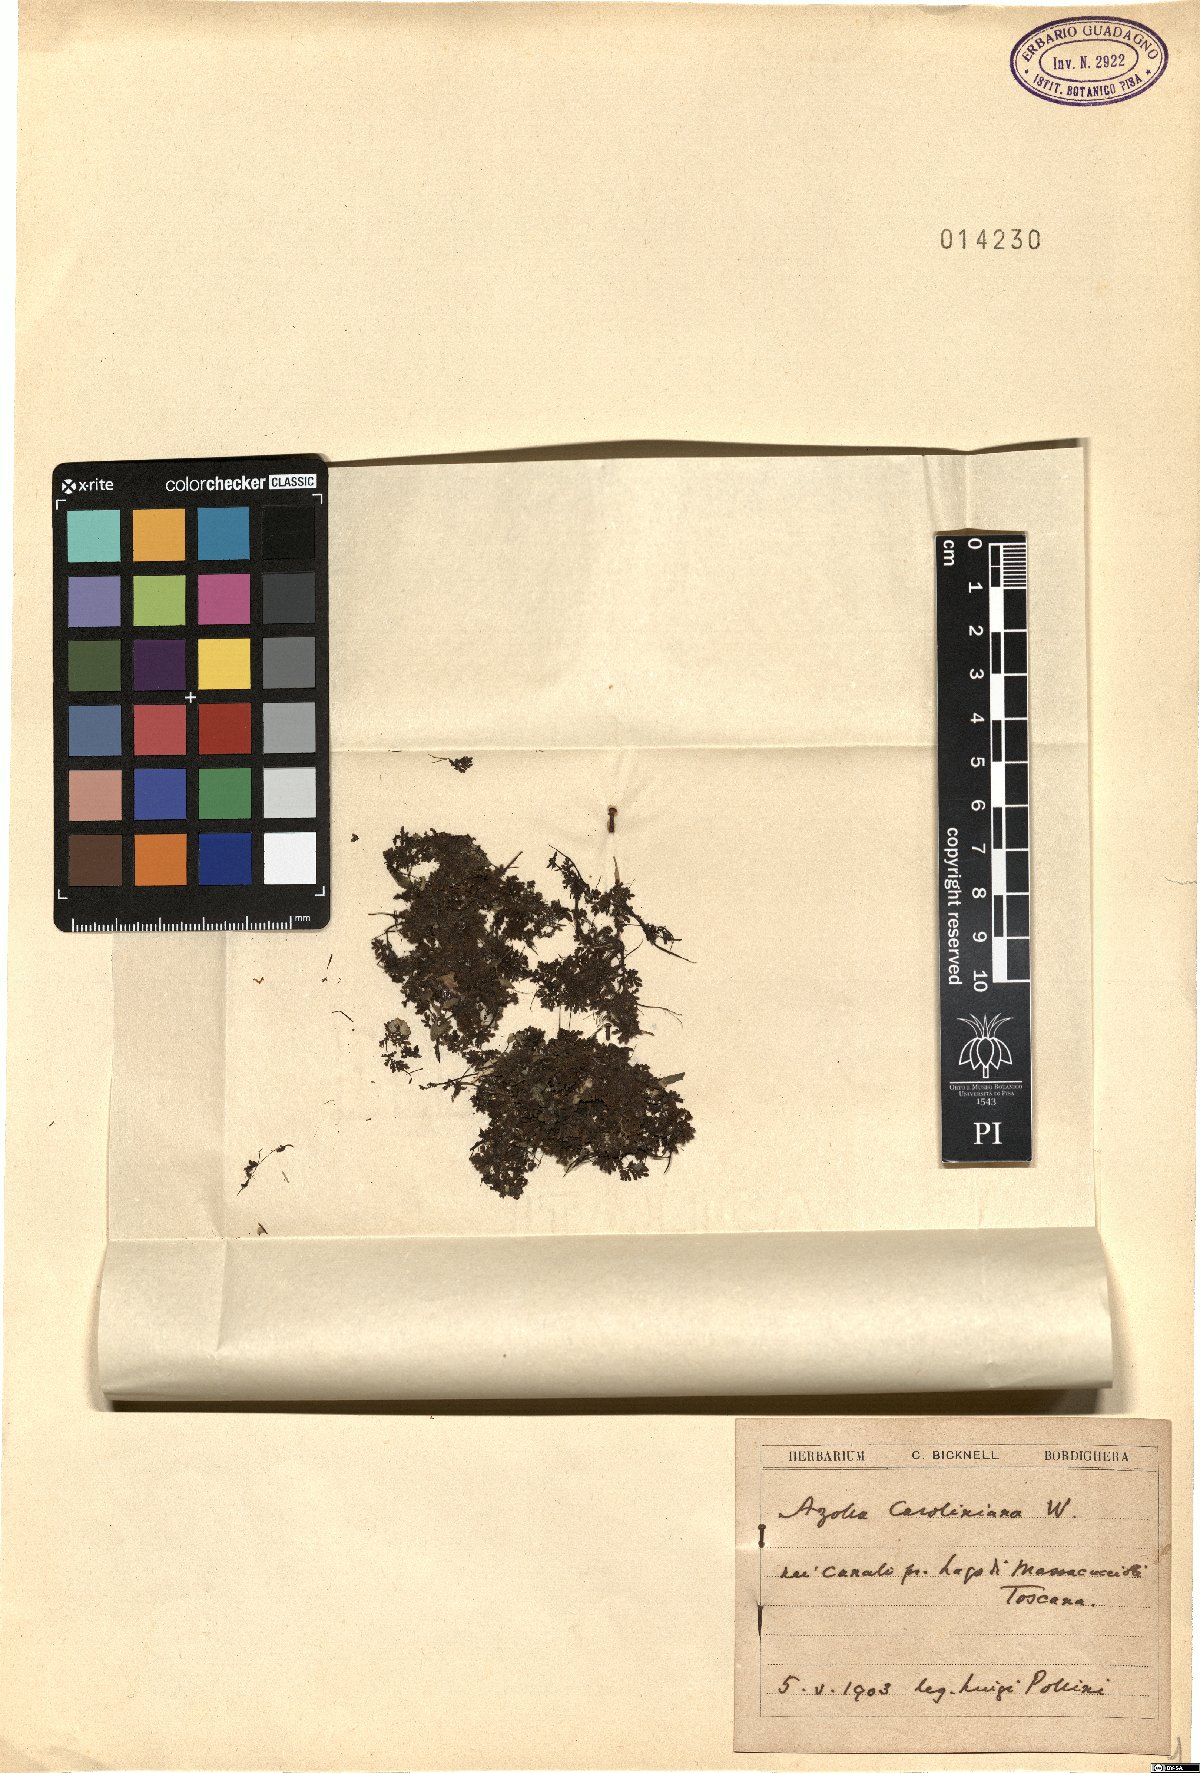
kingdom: Plantae
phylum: Tracheophyta
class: Polypodiopsida
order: Salviniales
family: Salviniaceae
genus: Azolla
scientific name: Azolla cristata
